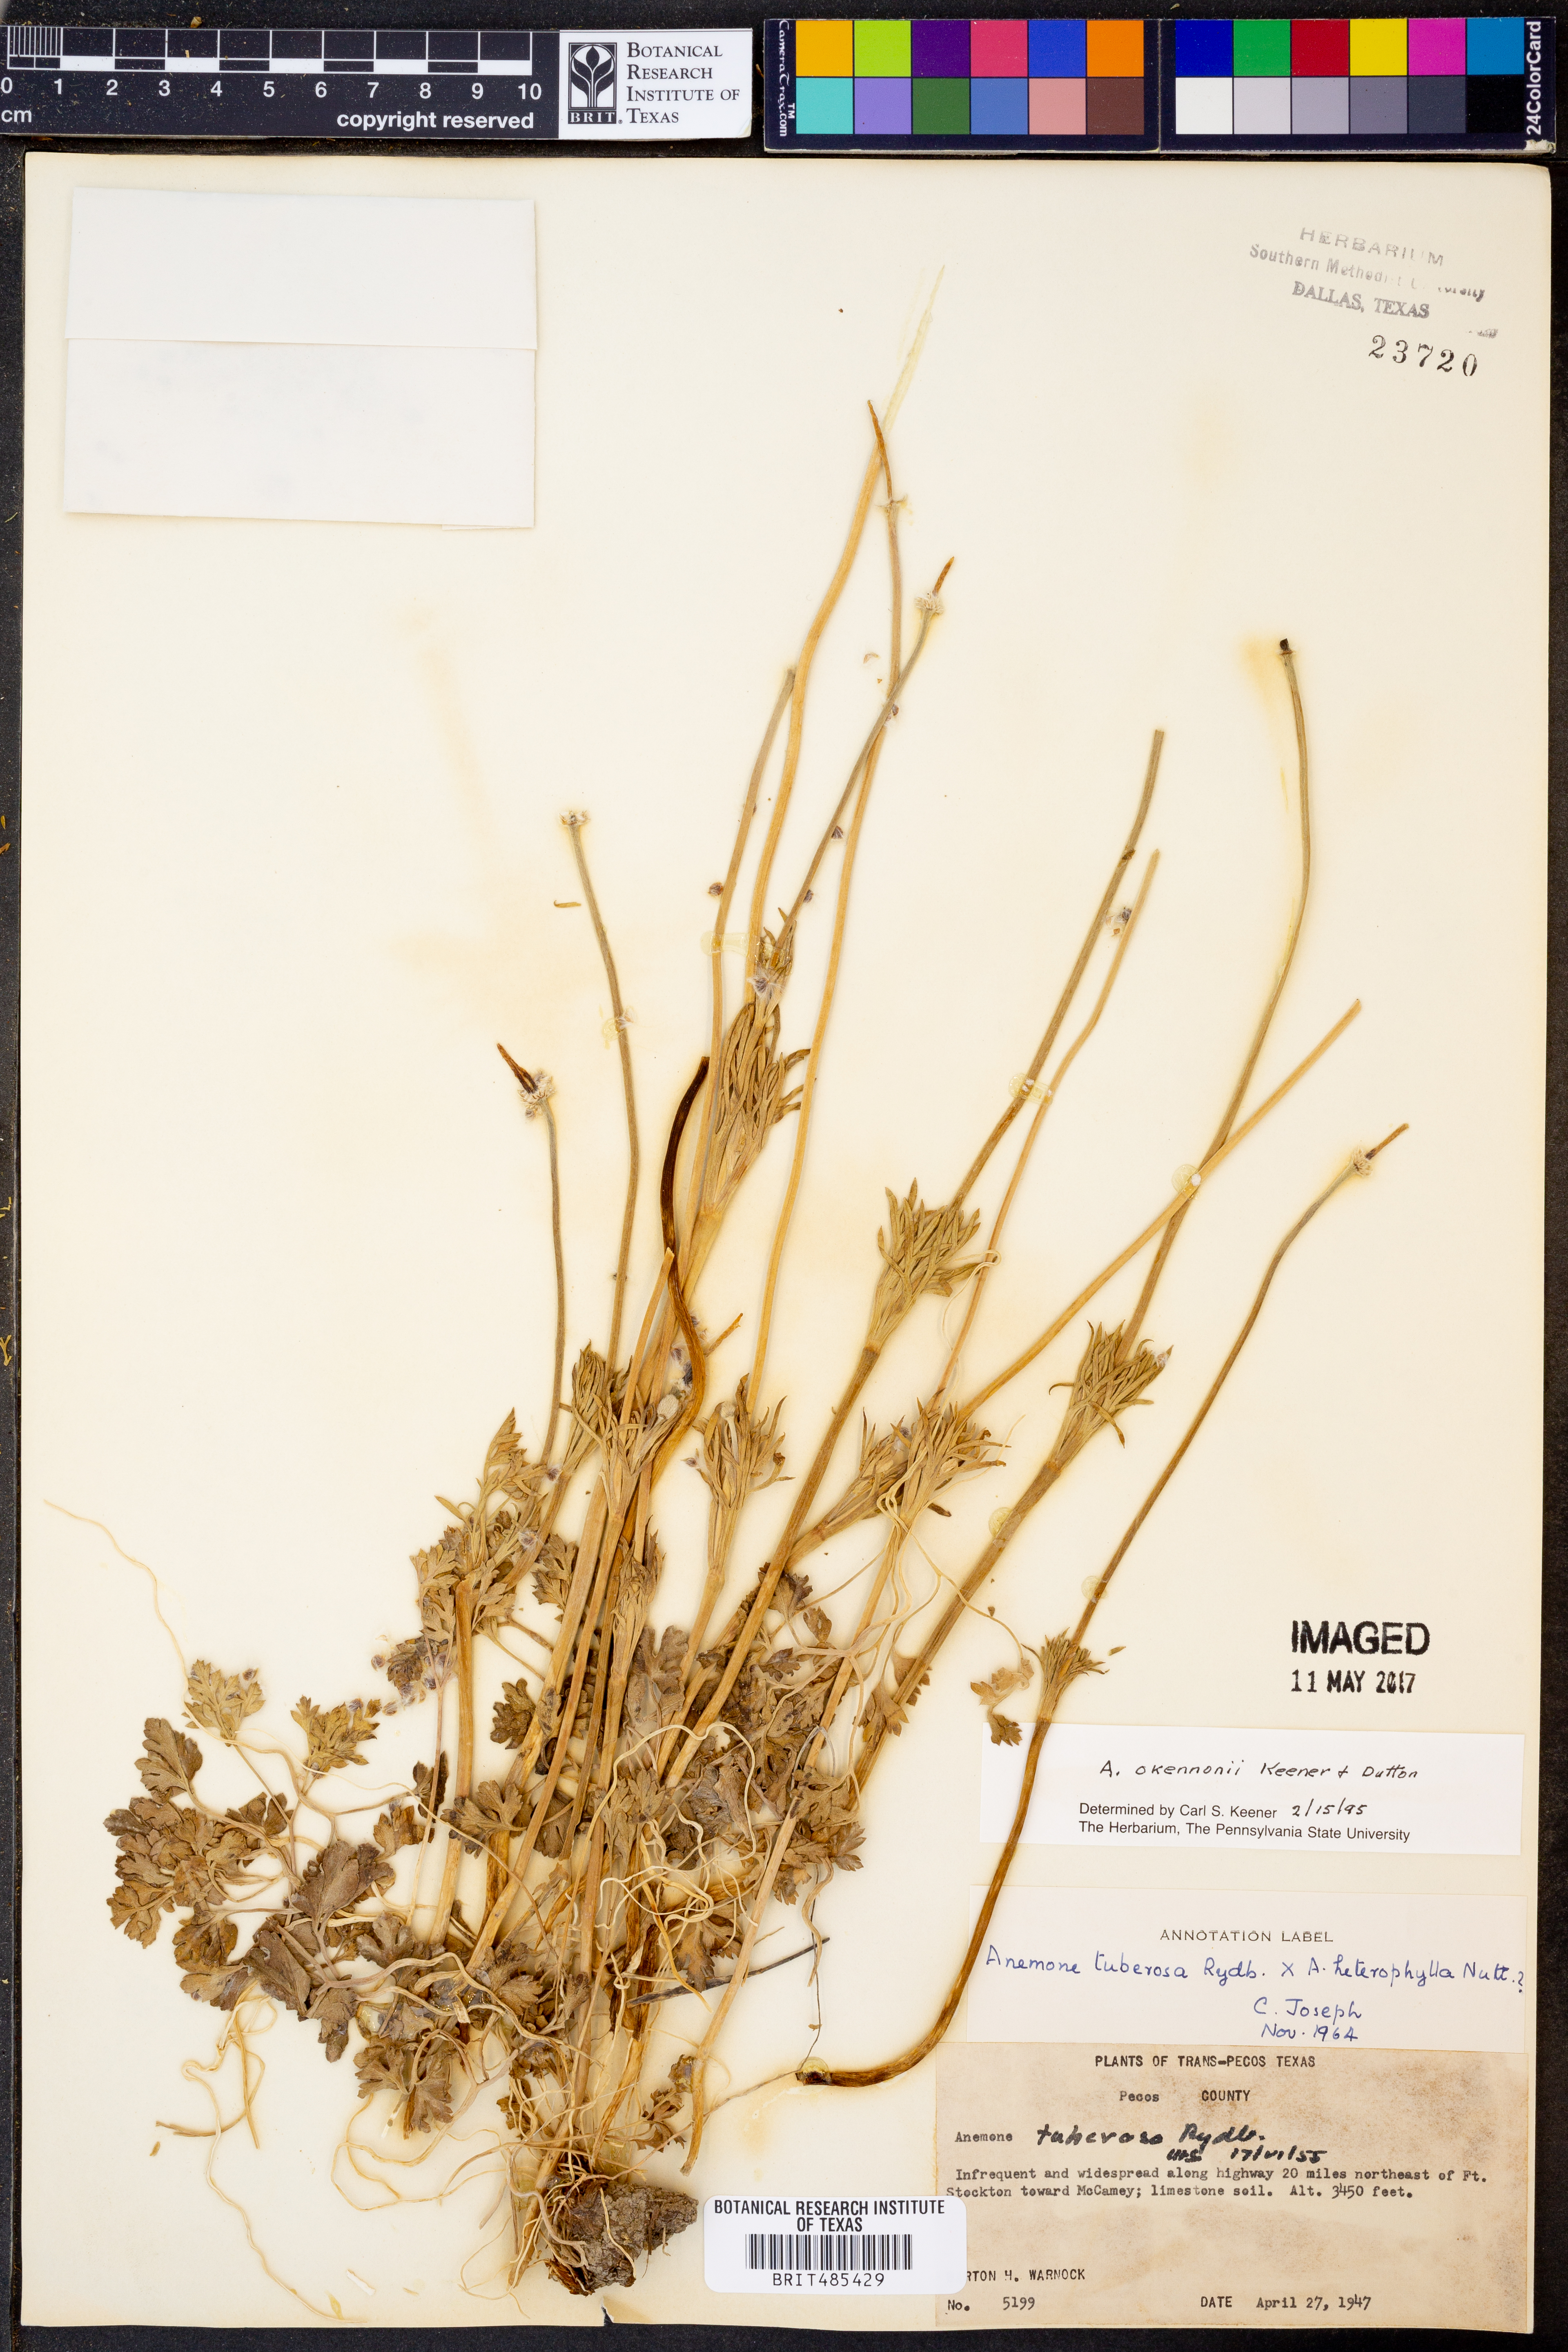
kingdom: Plantae
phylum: Tracheophyta
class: Magnoliopsida
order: Ranunculales
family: Ranunculaceae
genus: Anemone
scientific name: Anemone tuberosa
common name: Desert anemone
